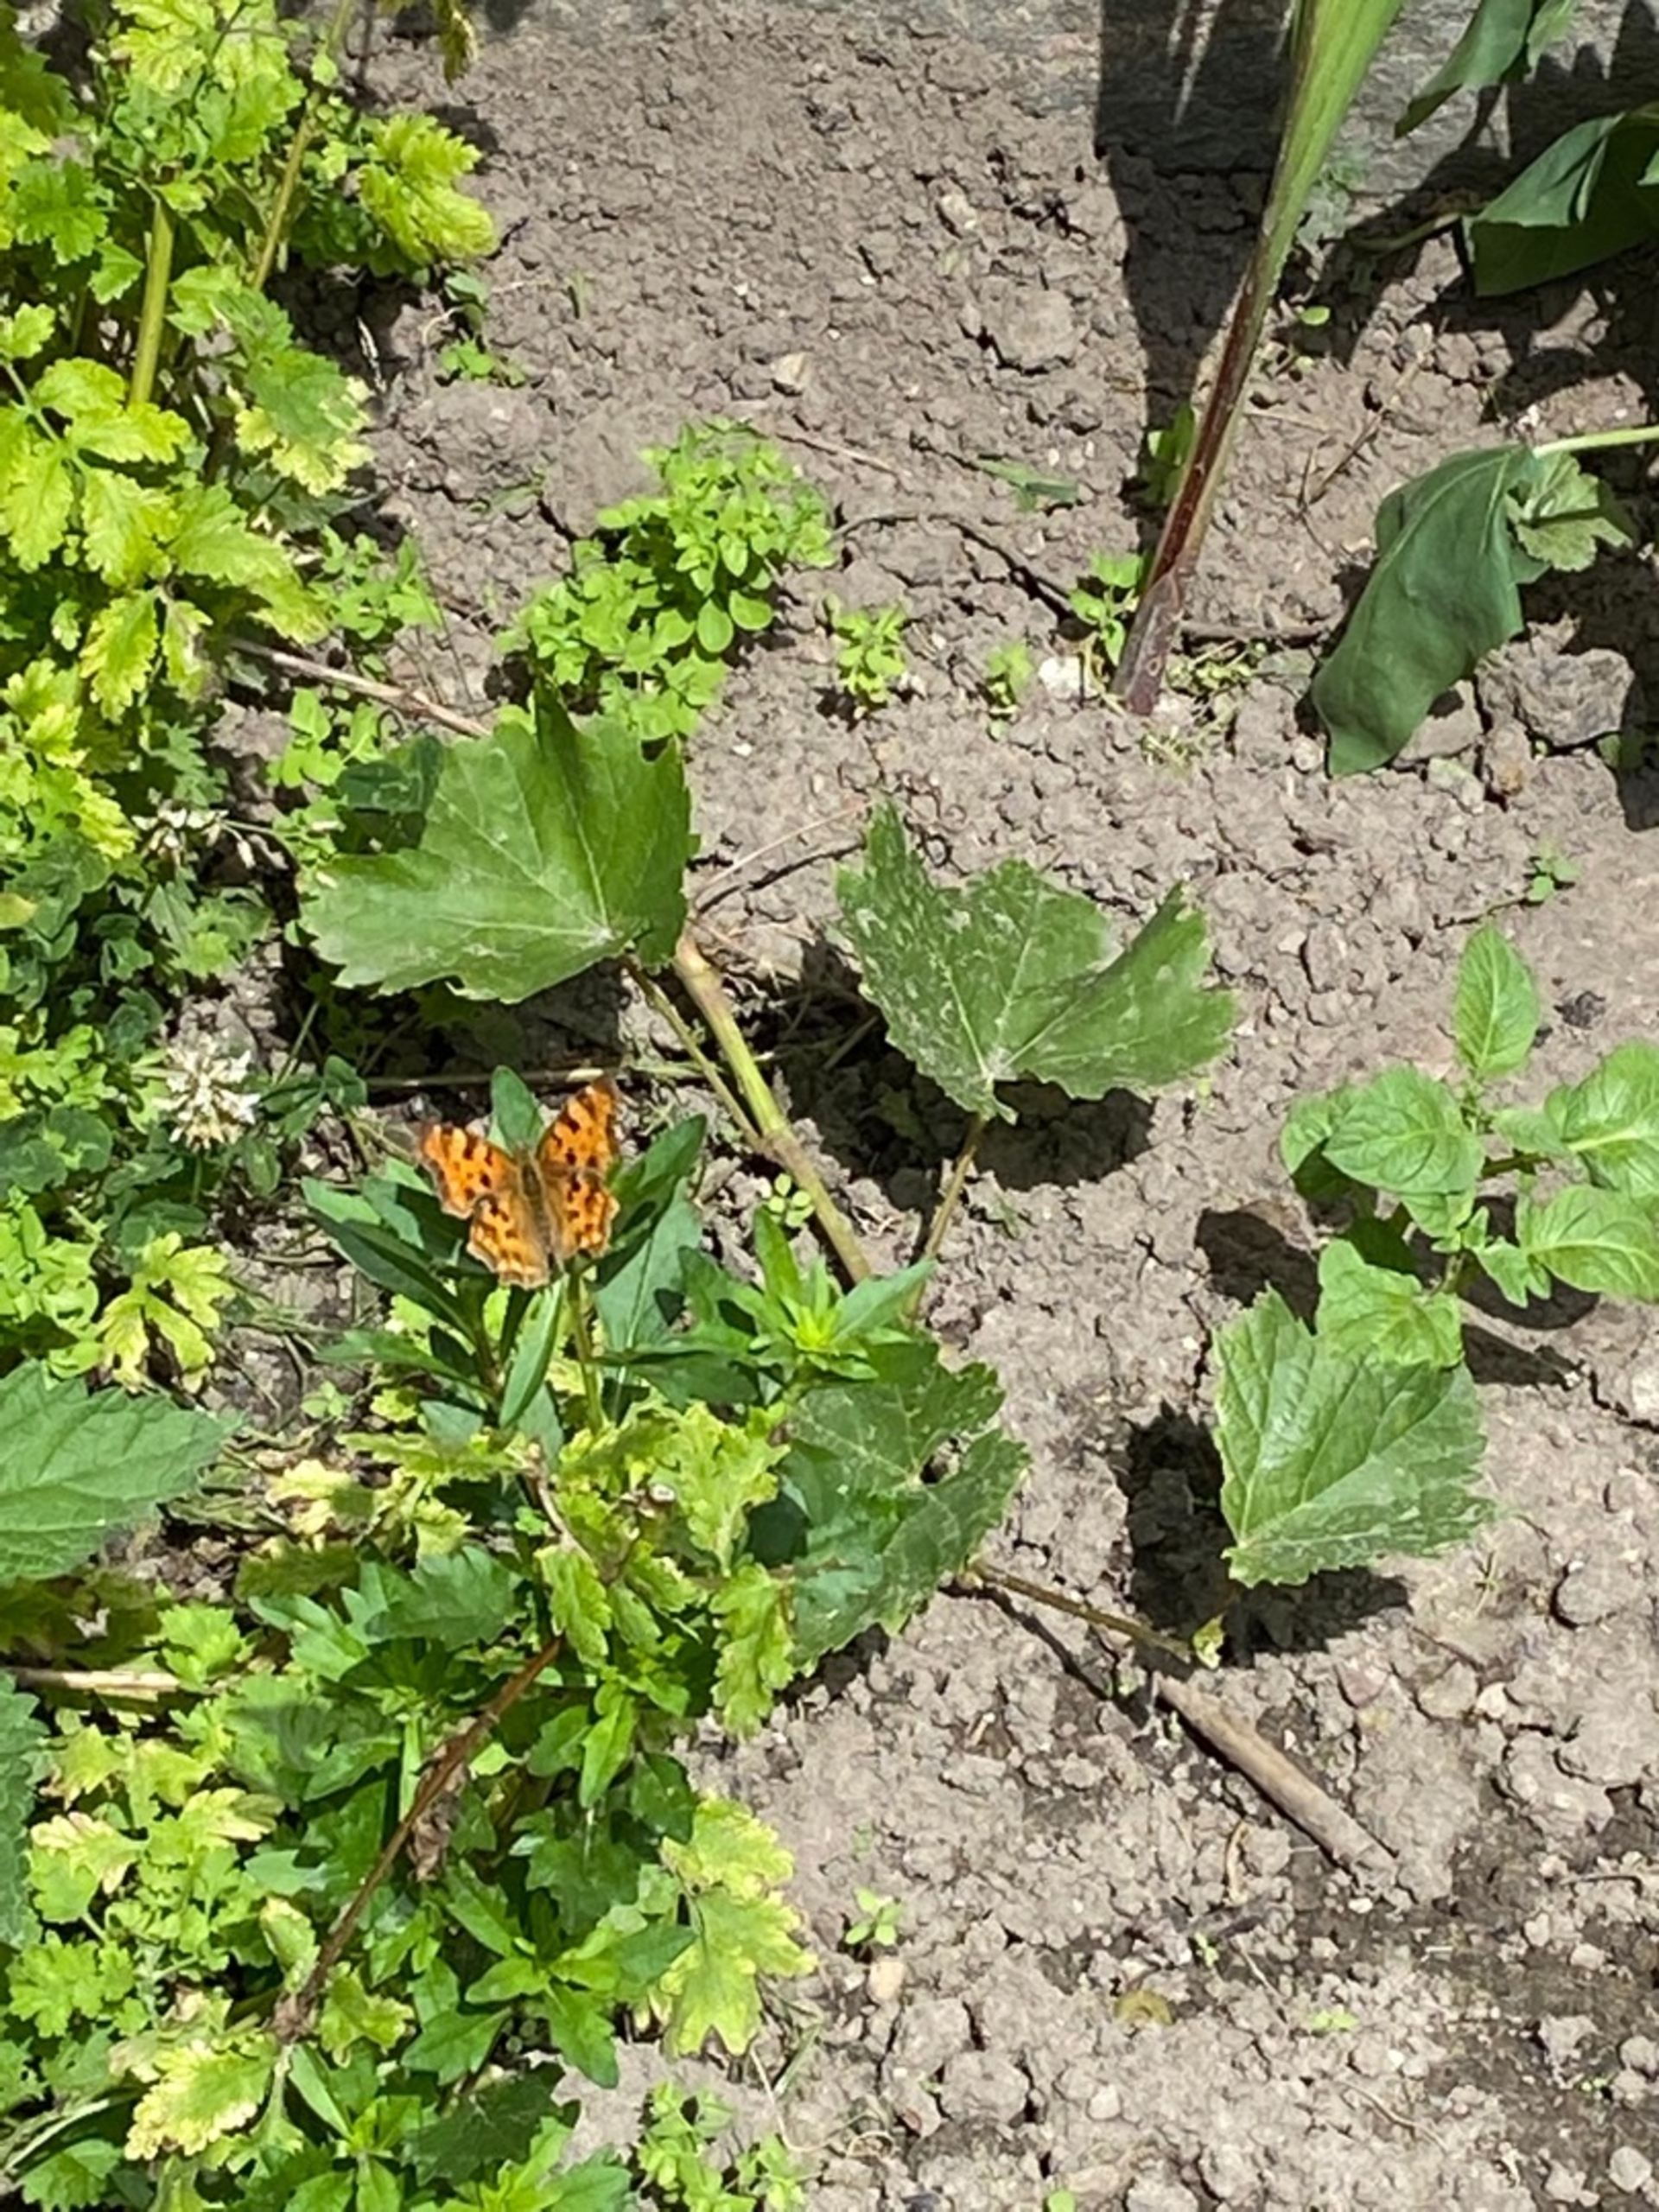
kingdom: Animalia
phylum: Arthropoda
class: Insecta
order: Lepidoptera
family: Nymphalidae
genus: Polygonia
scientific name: Polygonia c-album
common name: Det hvide C
